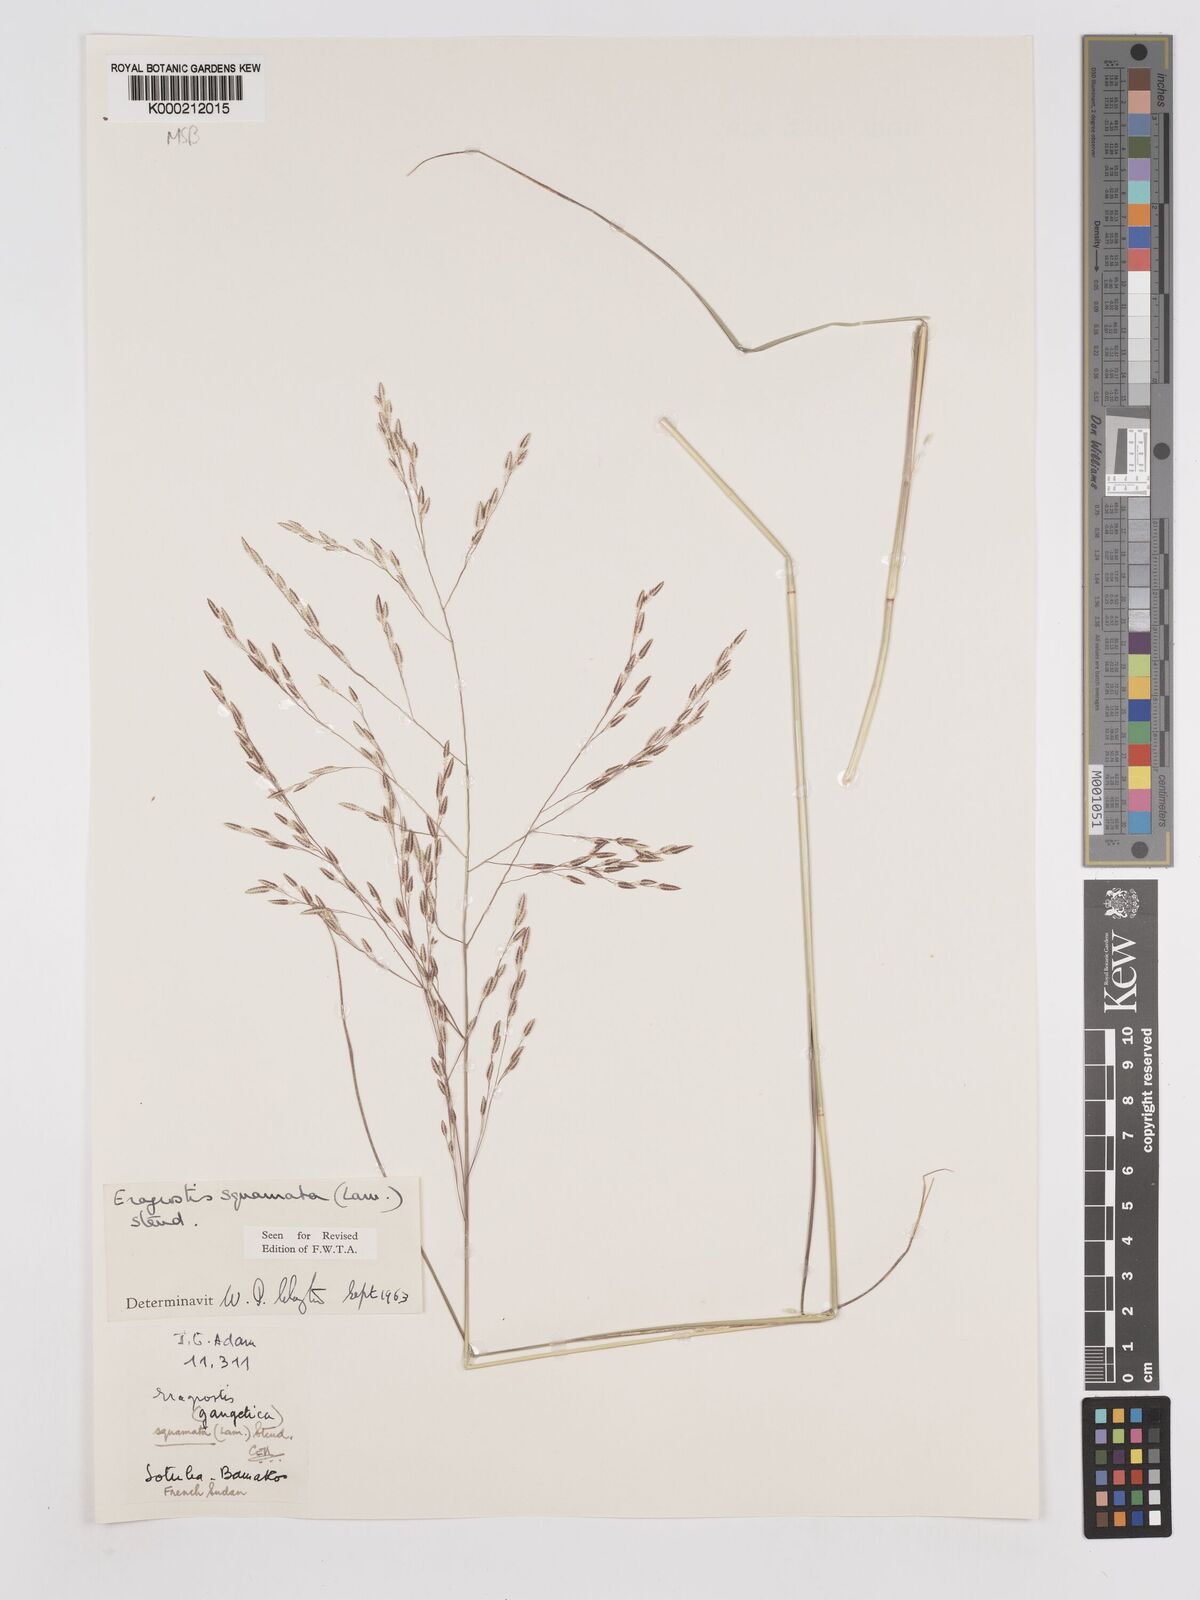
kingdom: Plantae
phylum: Tracheophyta
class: Liliopsida
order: Poales
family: Poaceae
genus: Eragrostis
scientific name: Eragrostis squamata
